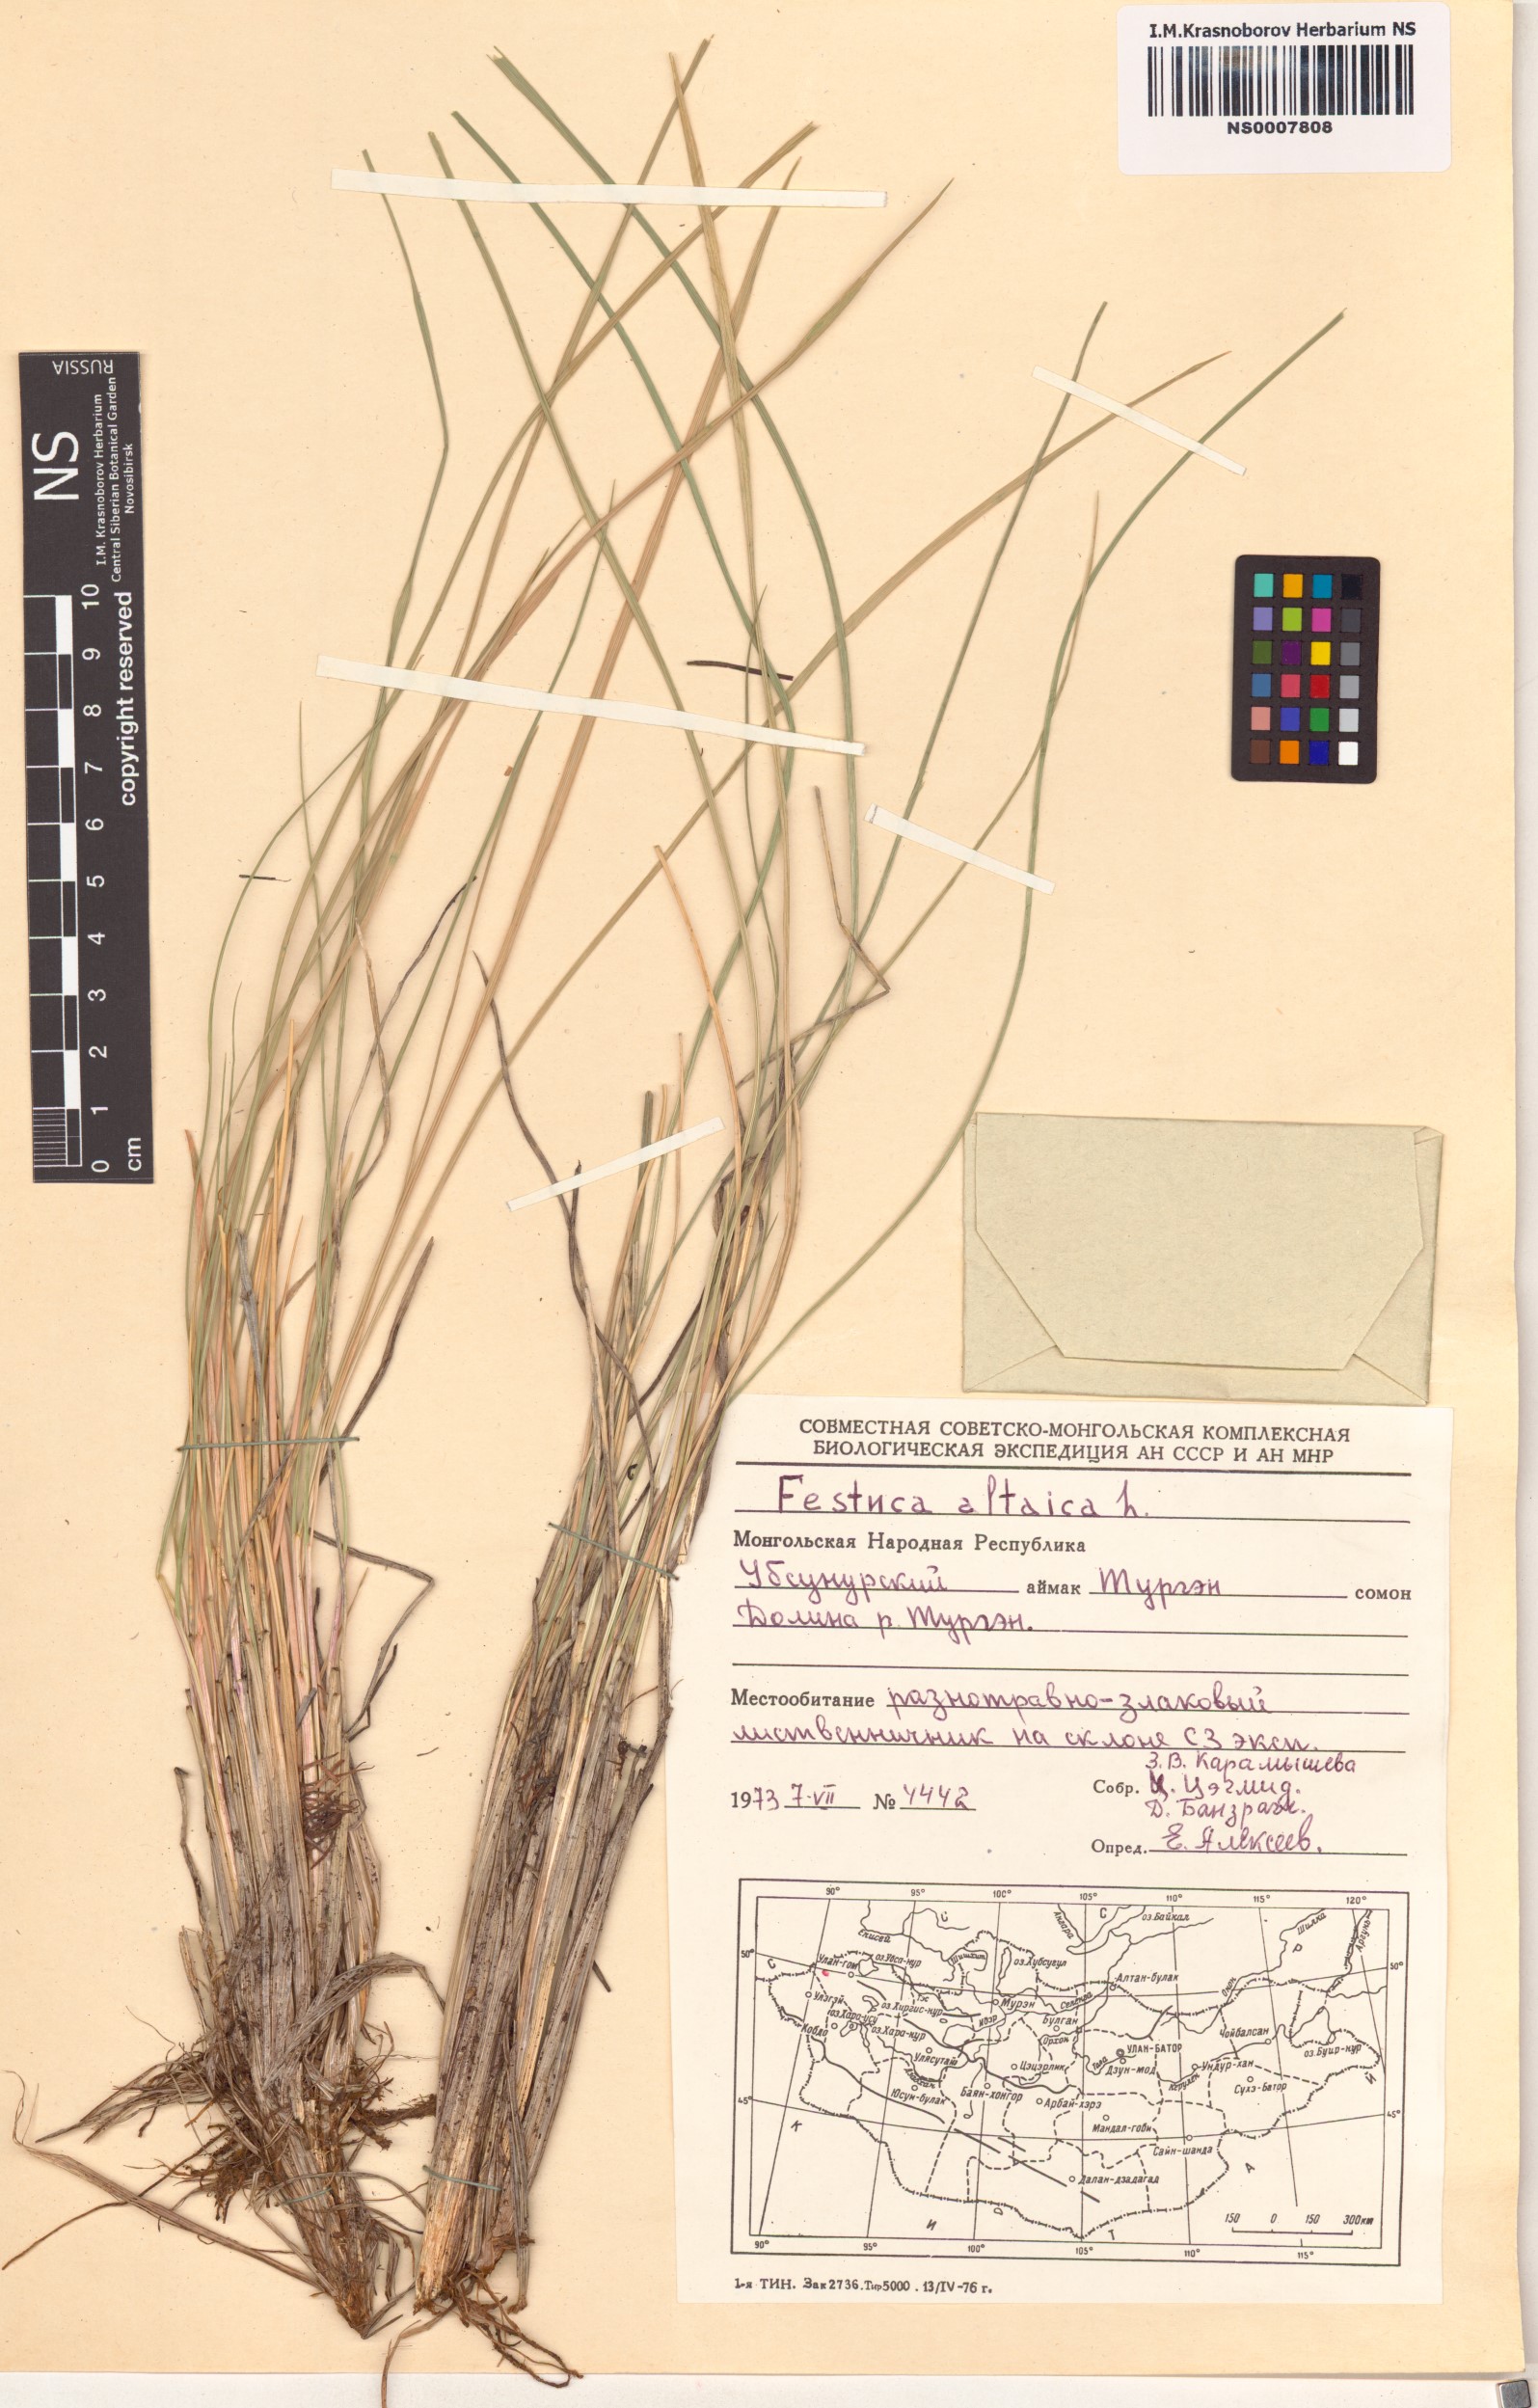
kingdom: Plantae
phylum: Tracheophyta
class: Liliopsida
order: Poales
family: Poaceae
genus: Festuca
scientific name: Festuca altaica
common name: Northern rough fescue
